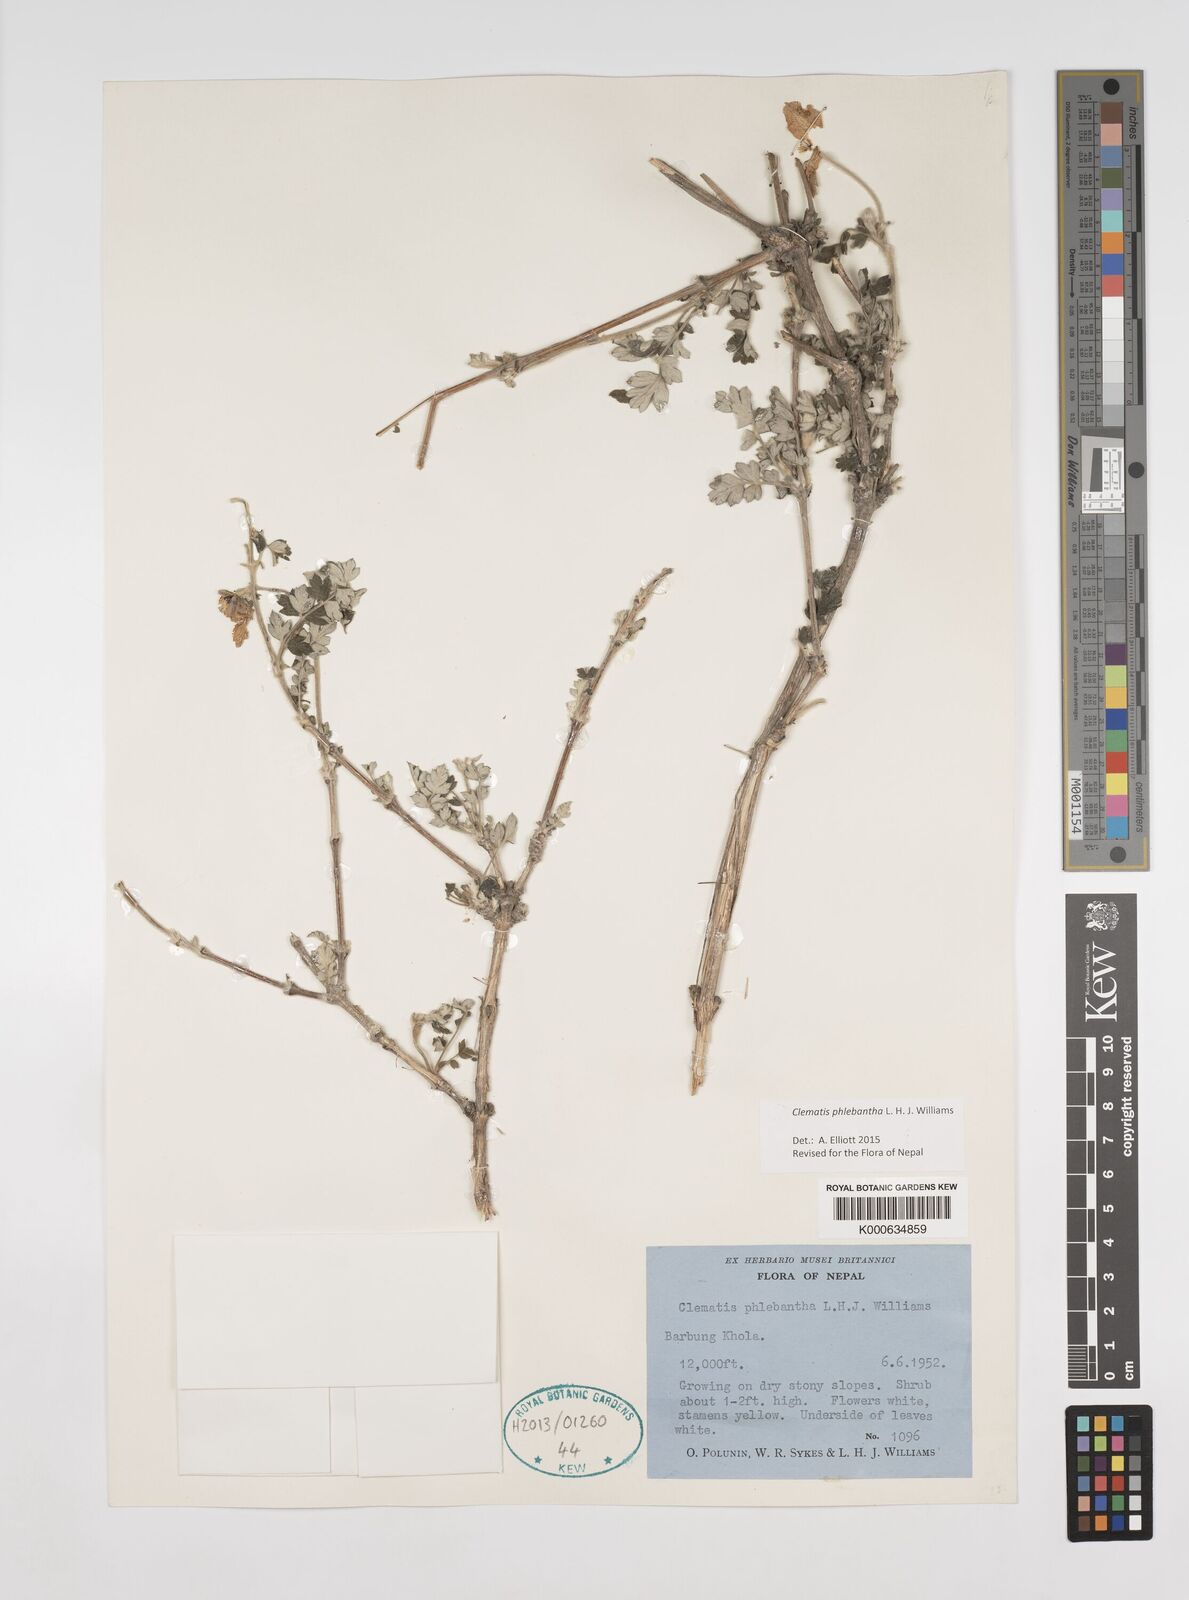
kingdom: Plantae
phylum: Tracheophyta
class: Magnoliopsida
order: Ranunculales
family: Ranunculaceae
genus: Clematis
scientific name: Clematis phlebantha
